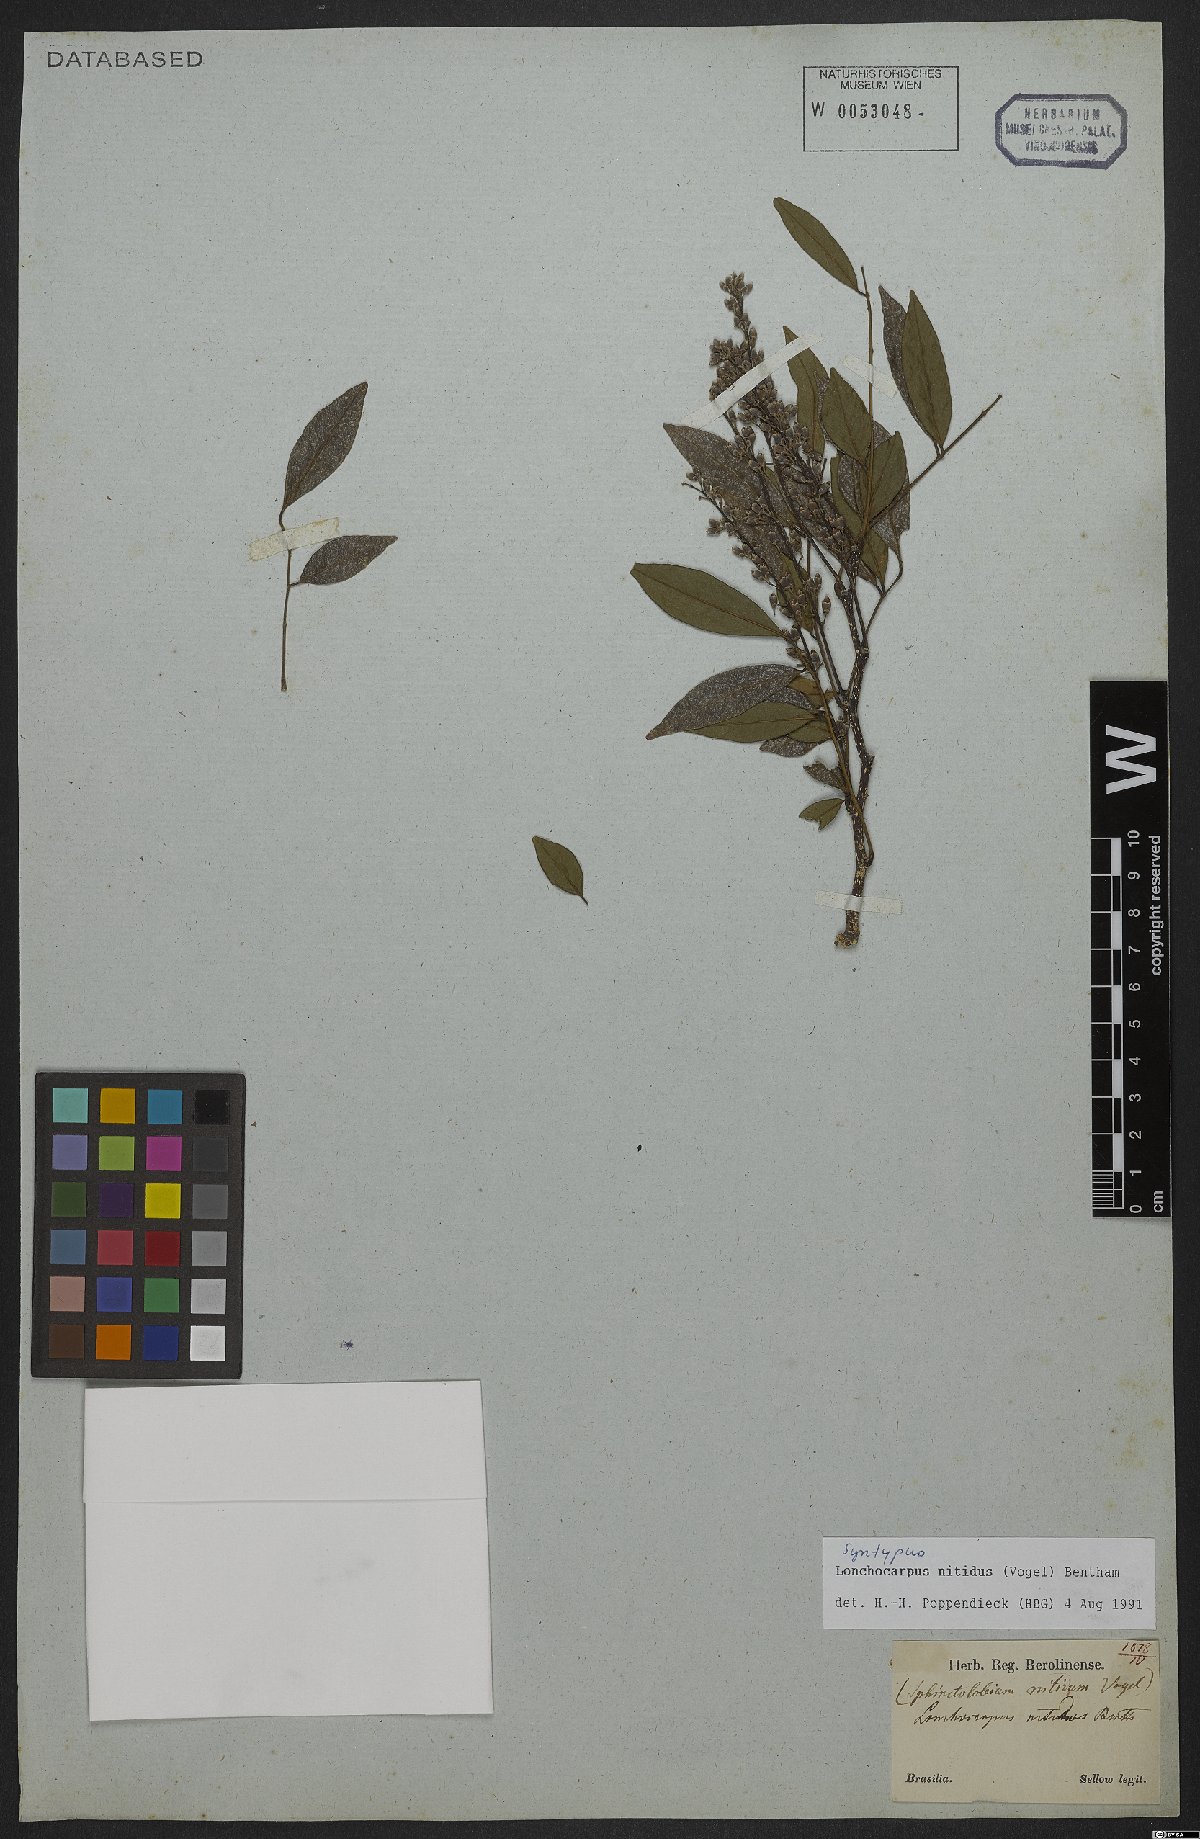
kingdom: Plantae
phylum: Tracheophyta
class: Magnoliopsida
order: Fabales
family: Fabaceae
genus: Lonchocarpus
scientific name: Lonchocarpus nitidus
